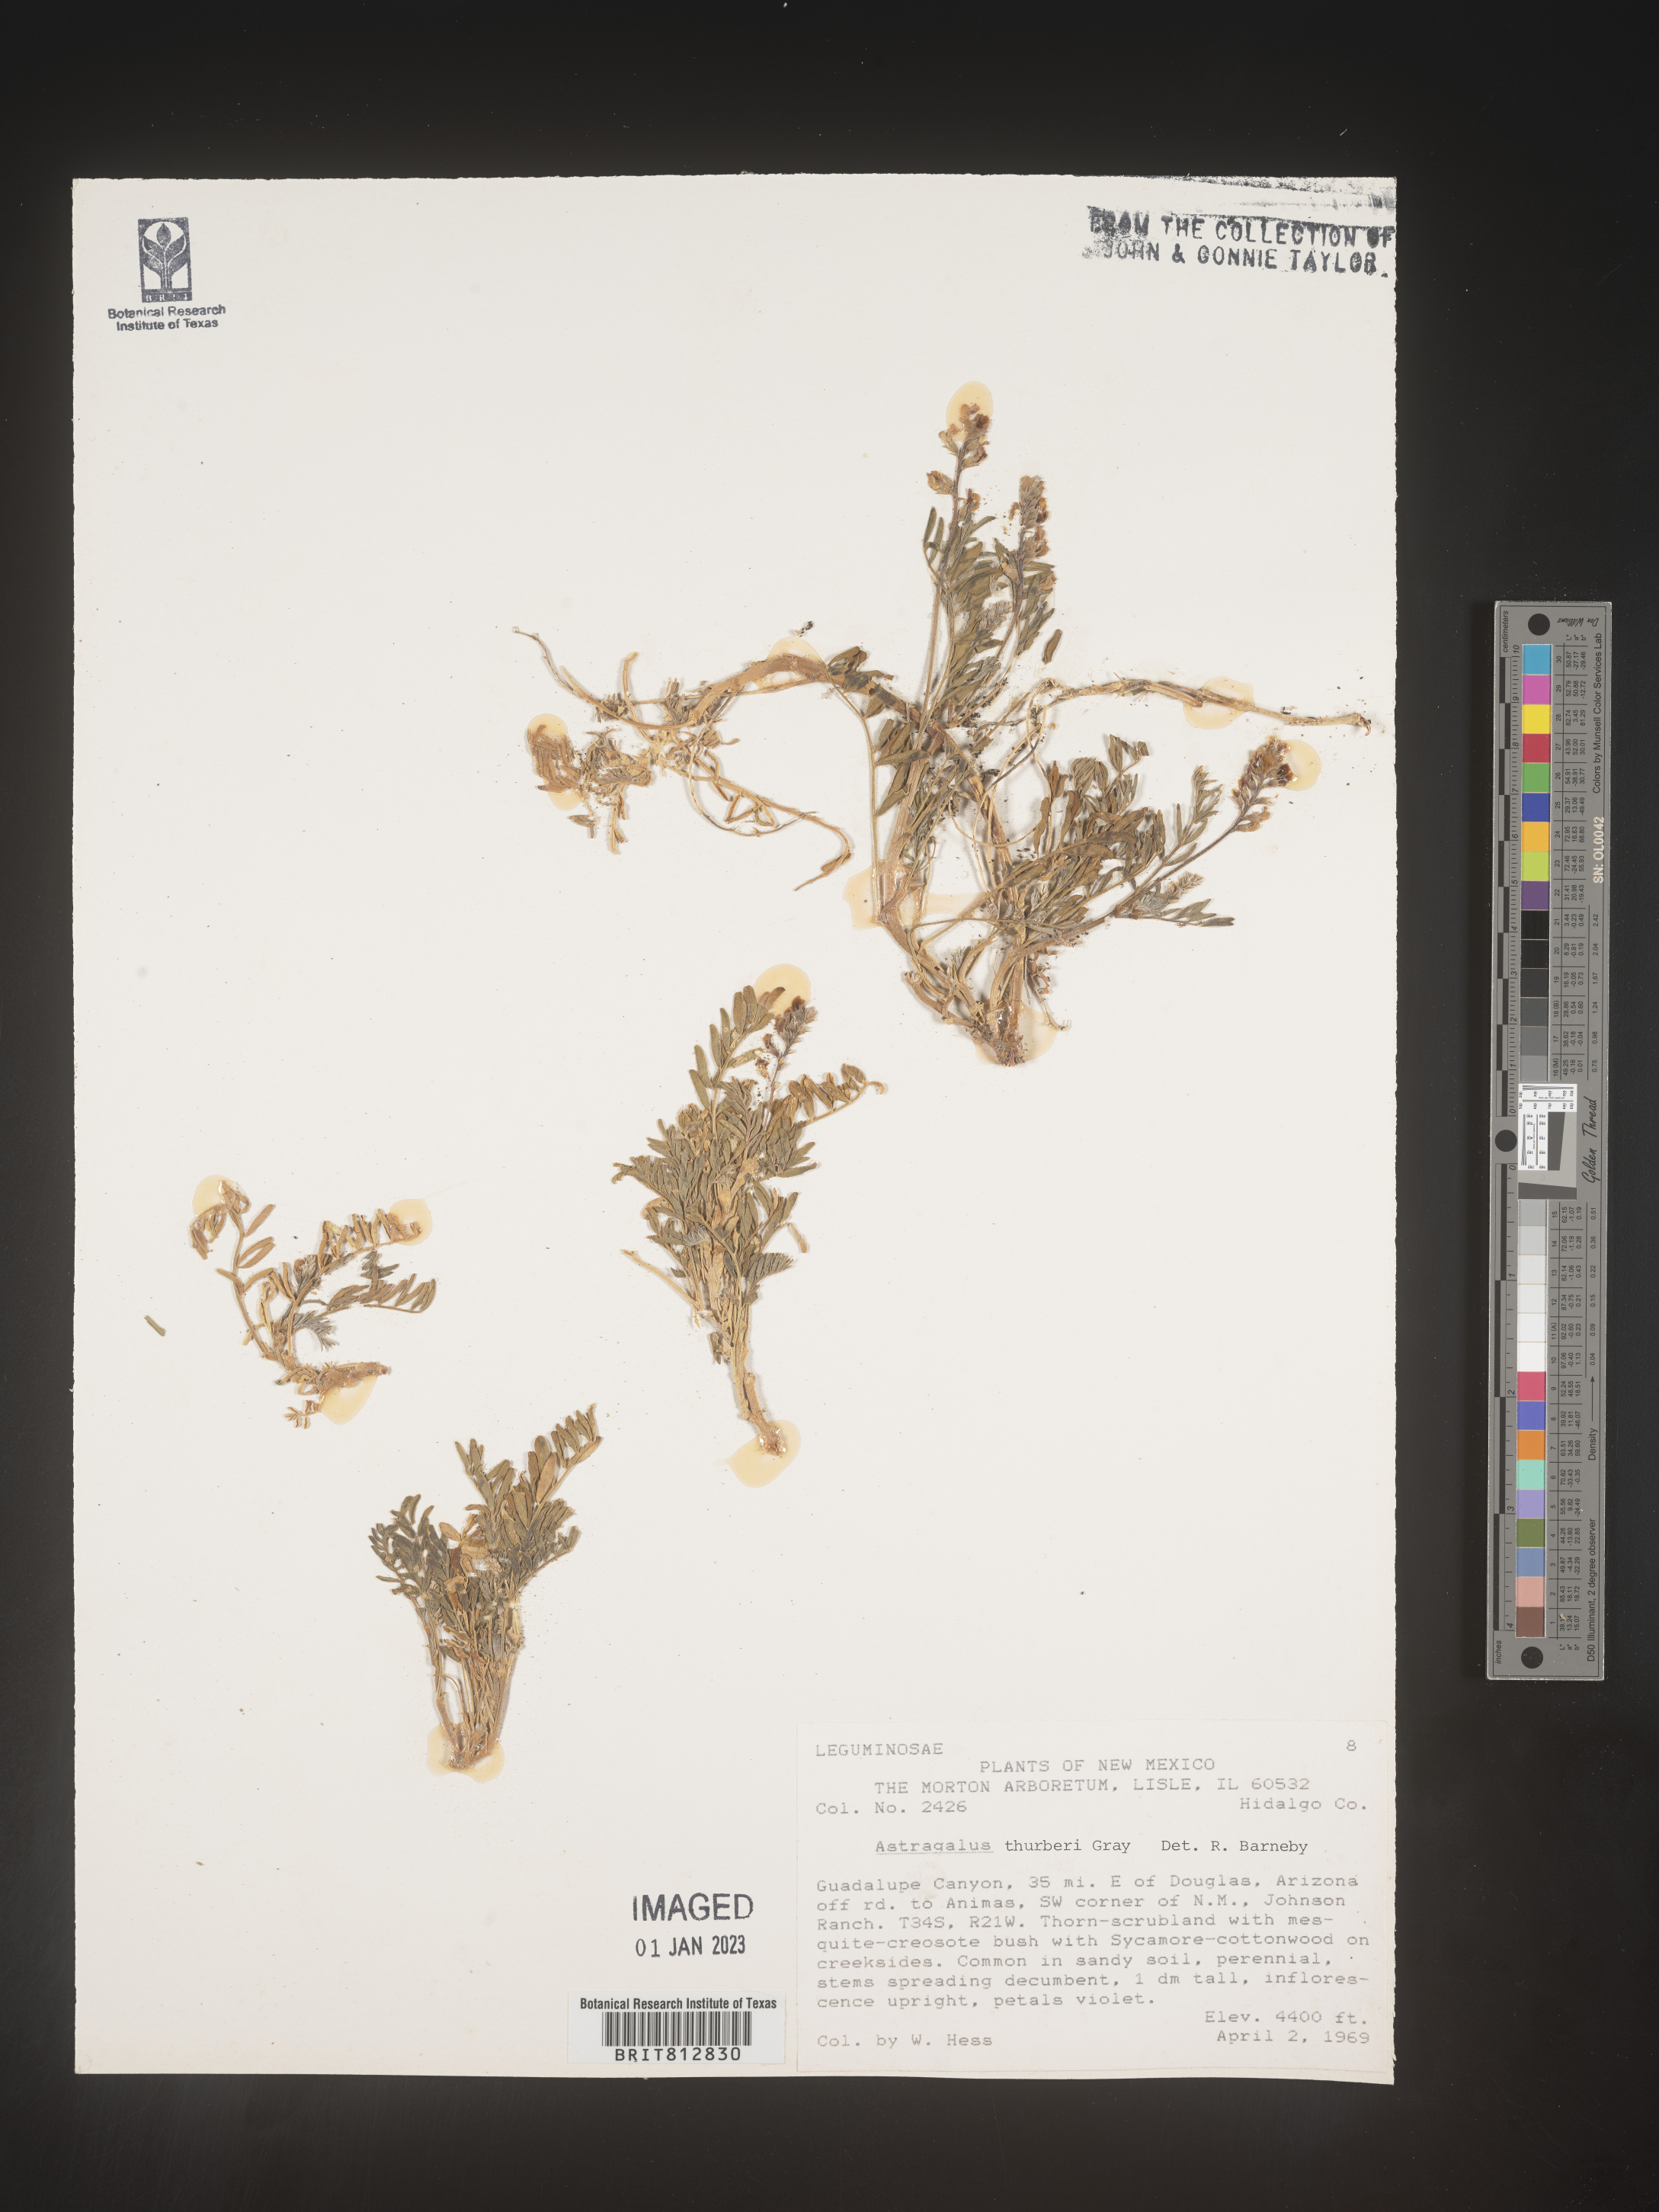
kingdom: Plantae
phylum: Tracheophyta
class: Magnoliopsida
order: Fabales
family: Fabaceae
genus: Astragalus
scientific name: Astragalus
